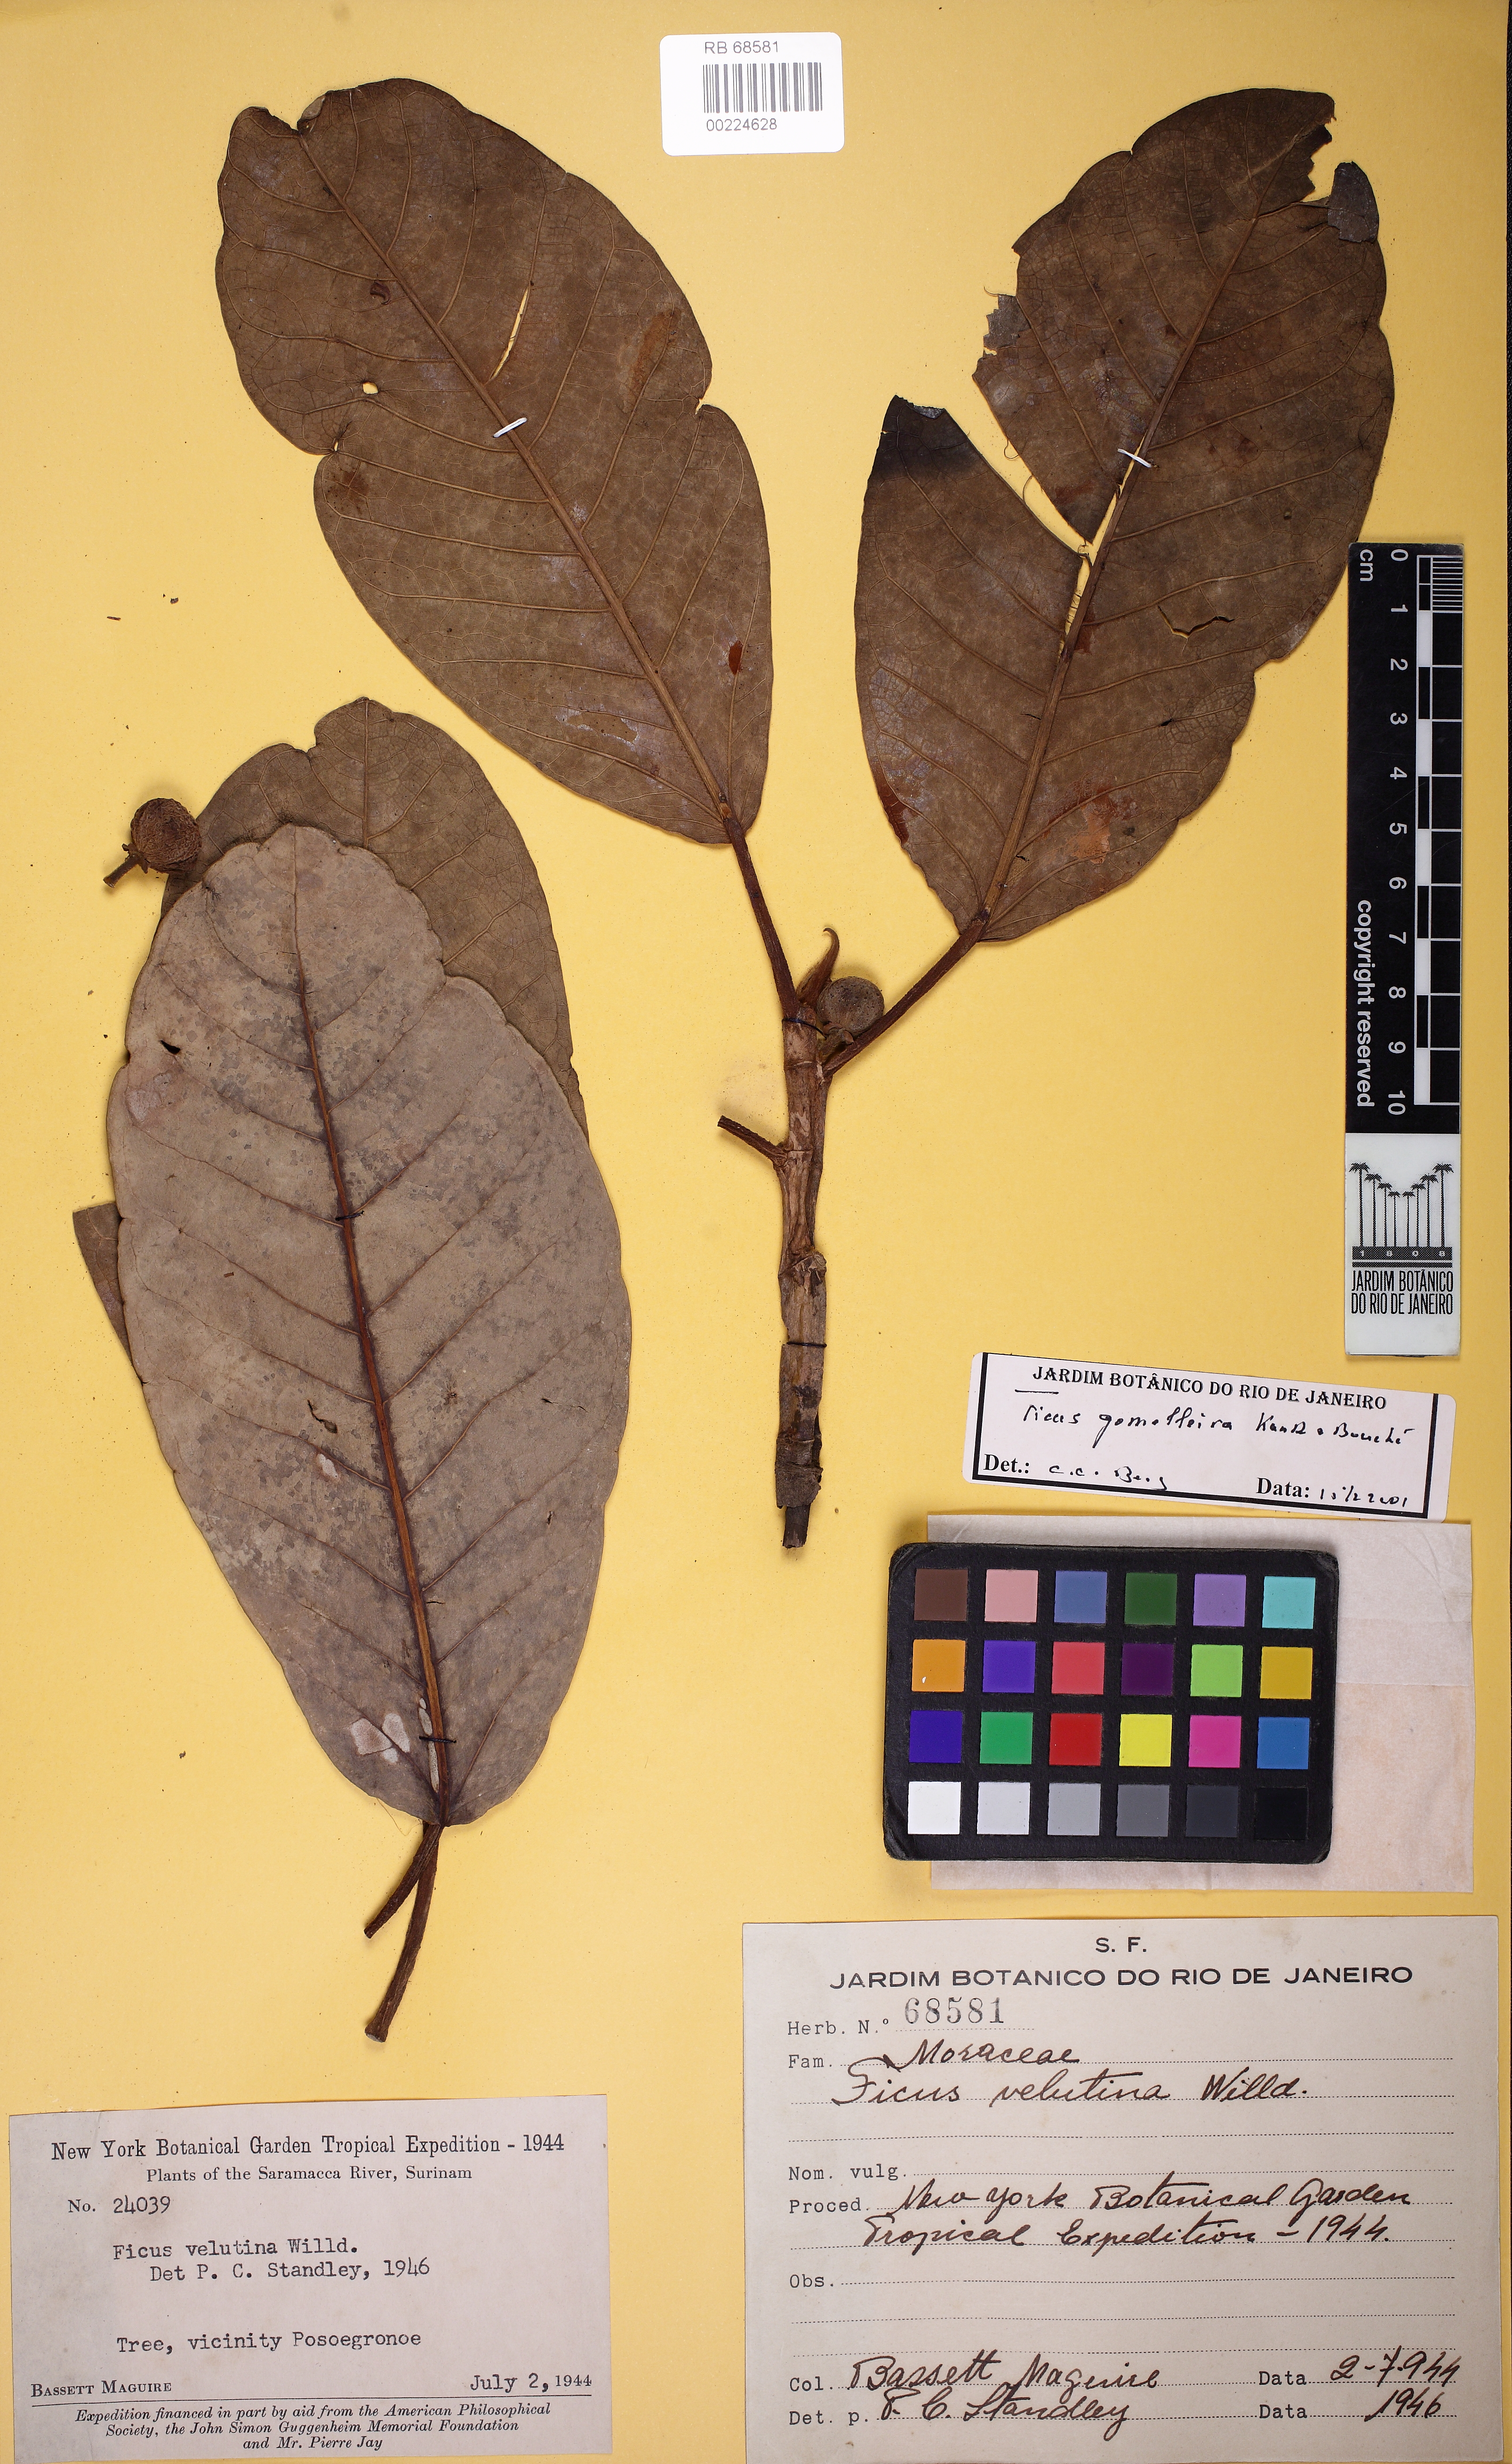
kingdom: Plantae
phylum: Tracheophyta
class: Magnoliopsida
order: Rosales
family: Moraceae
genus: Ficus
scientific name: Ficus gomelleira
